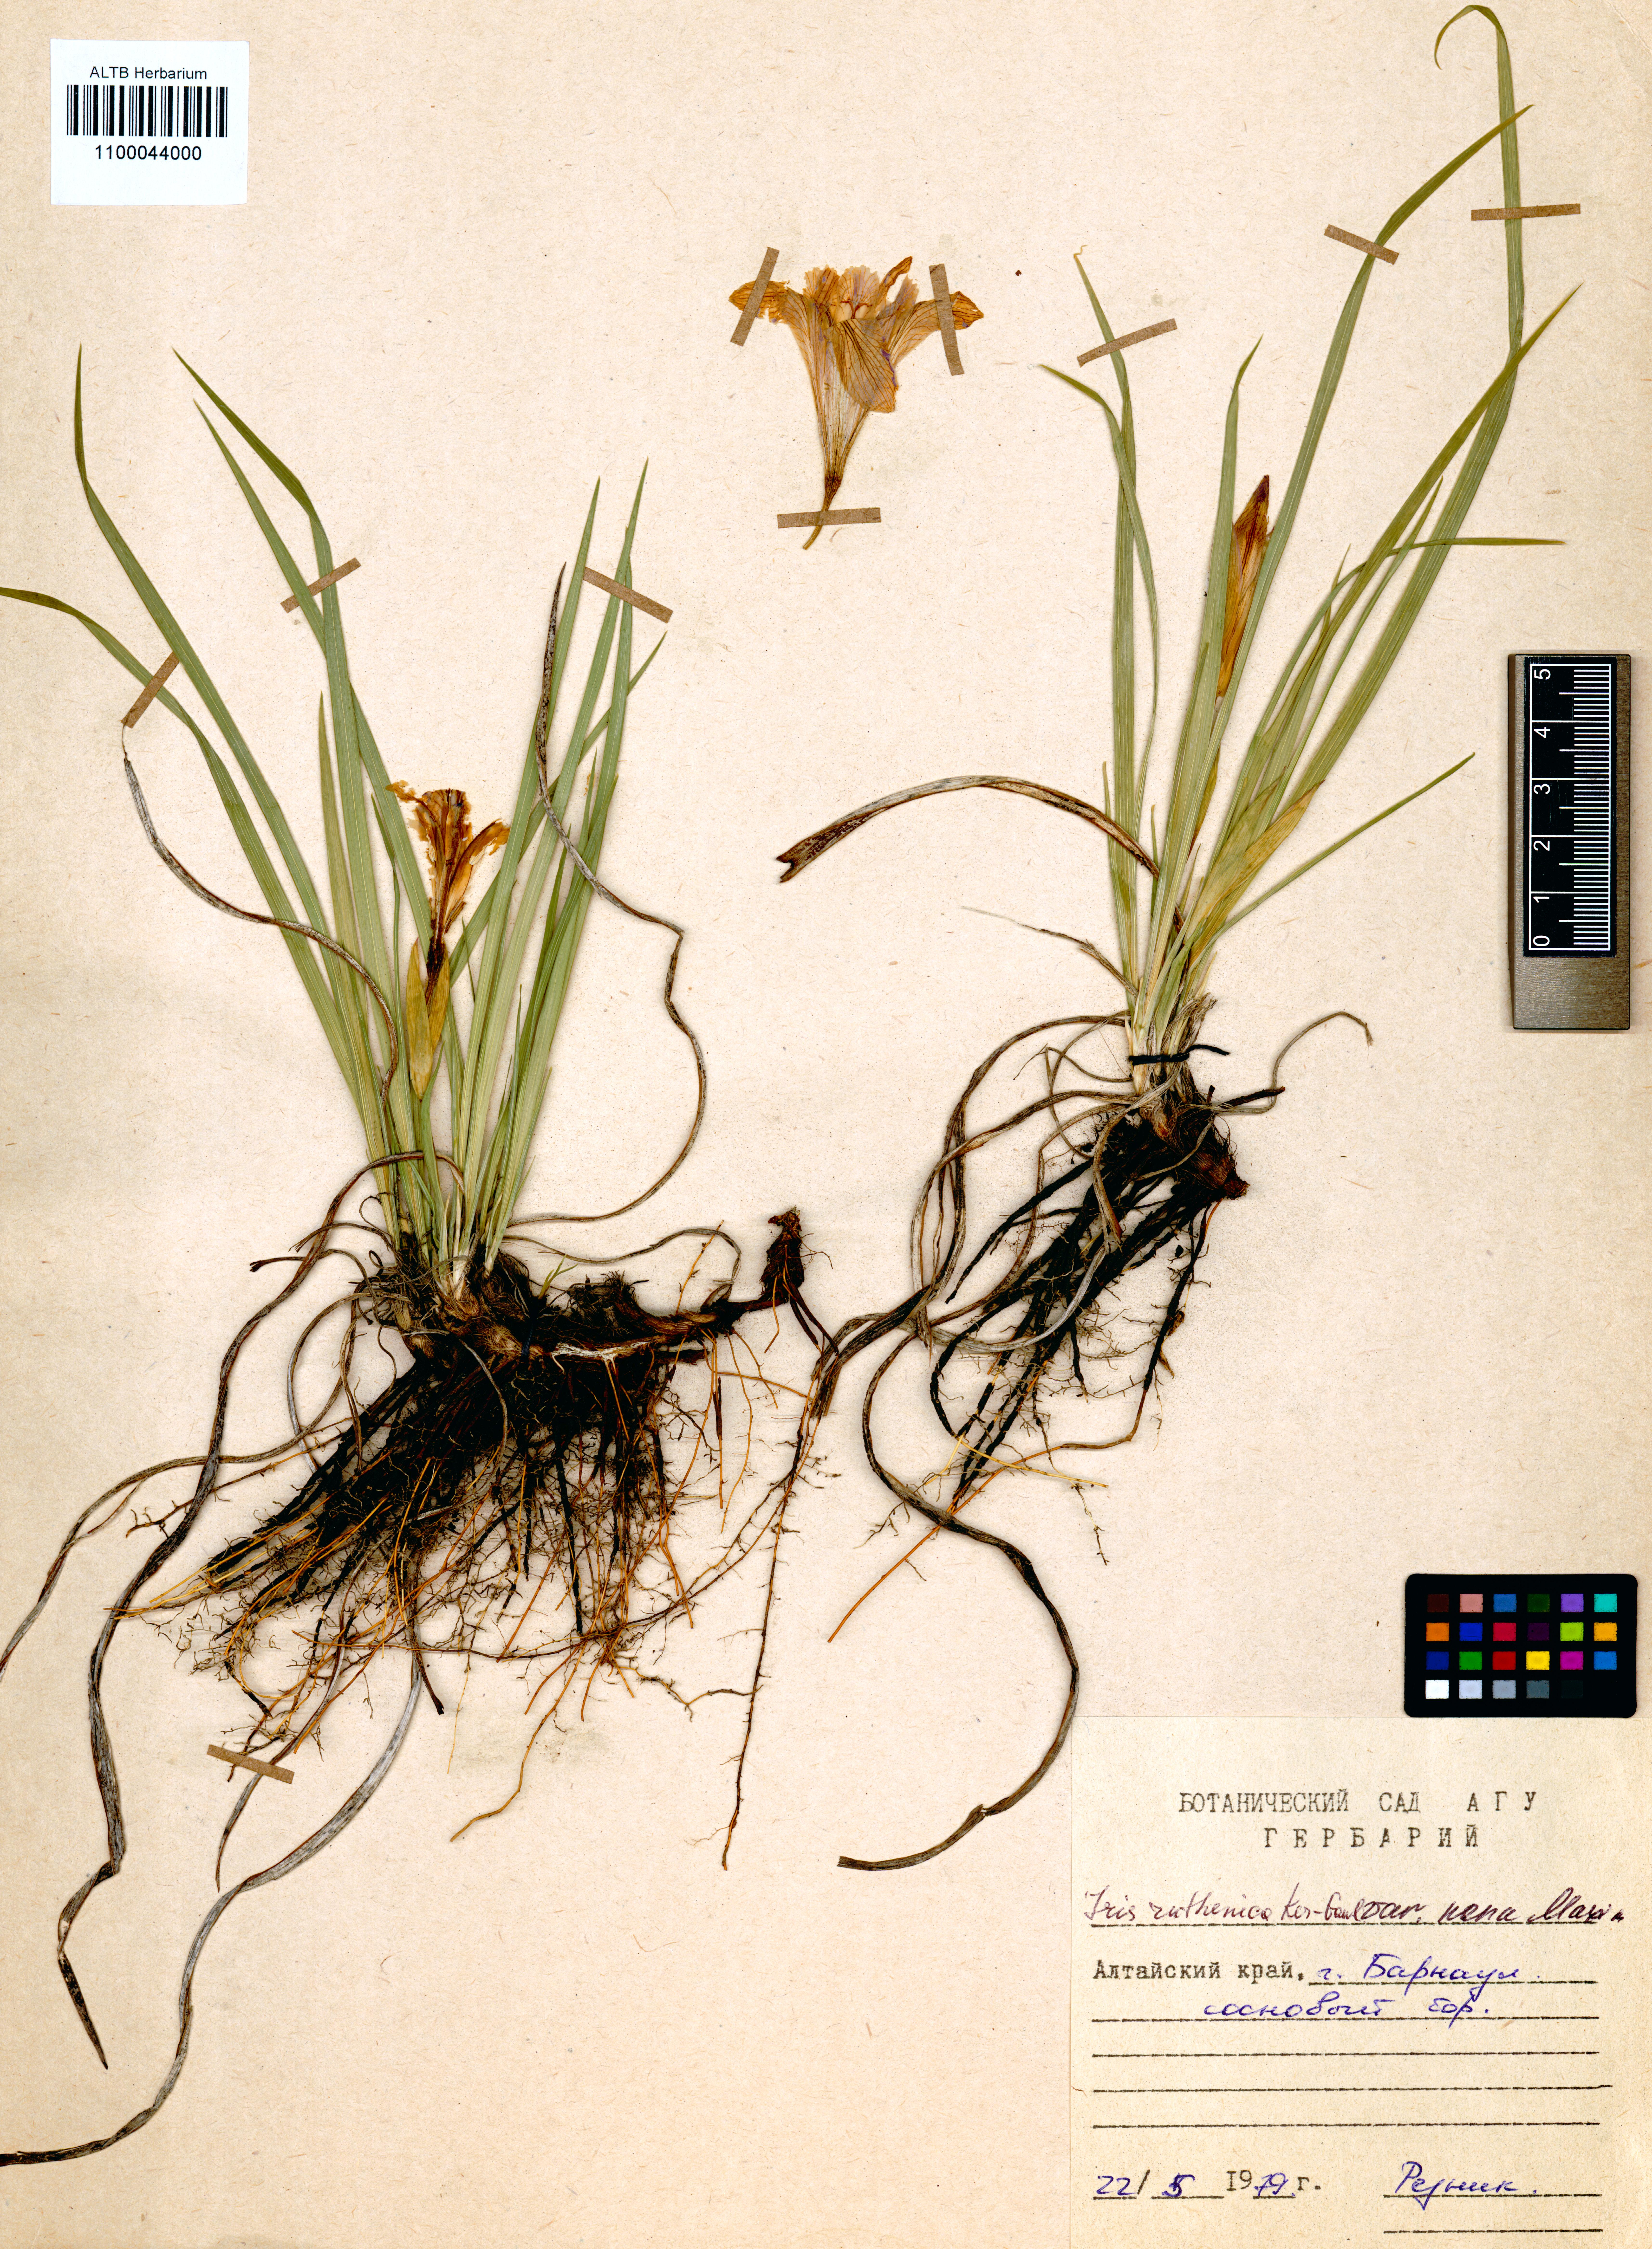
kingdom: Plantae
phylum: Tracheophyta
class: Liliopsida
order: Asparagales
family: Iridaceae
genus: Iris
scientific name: Iris ruthenica
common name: Purple-bract iris
